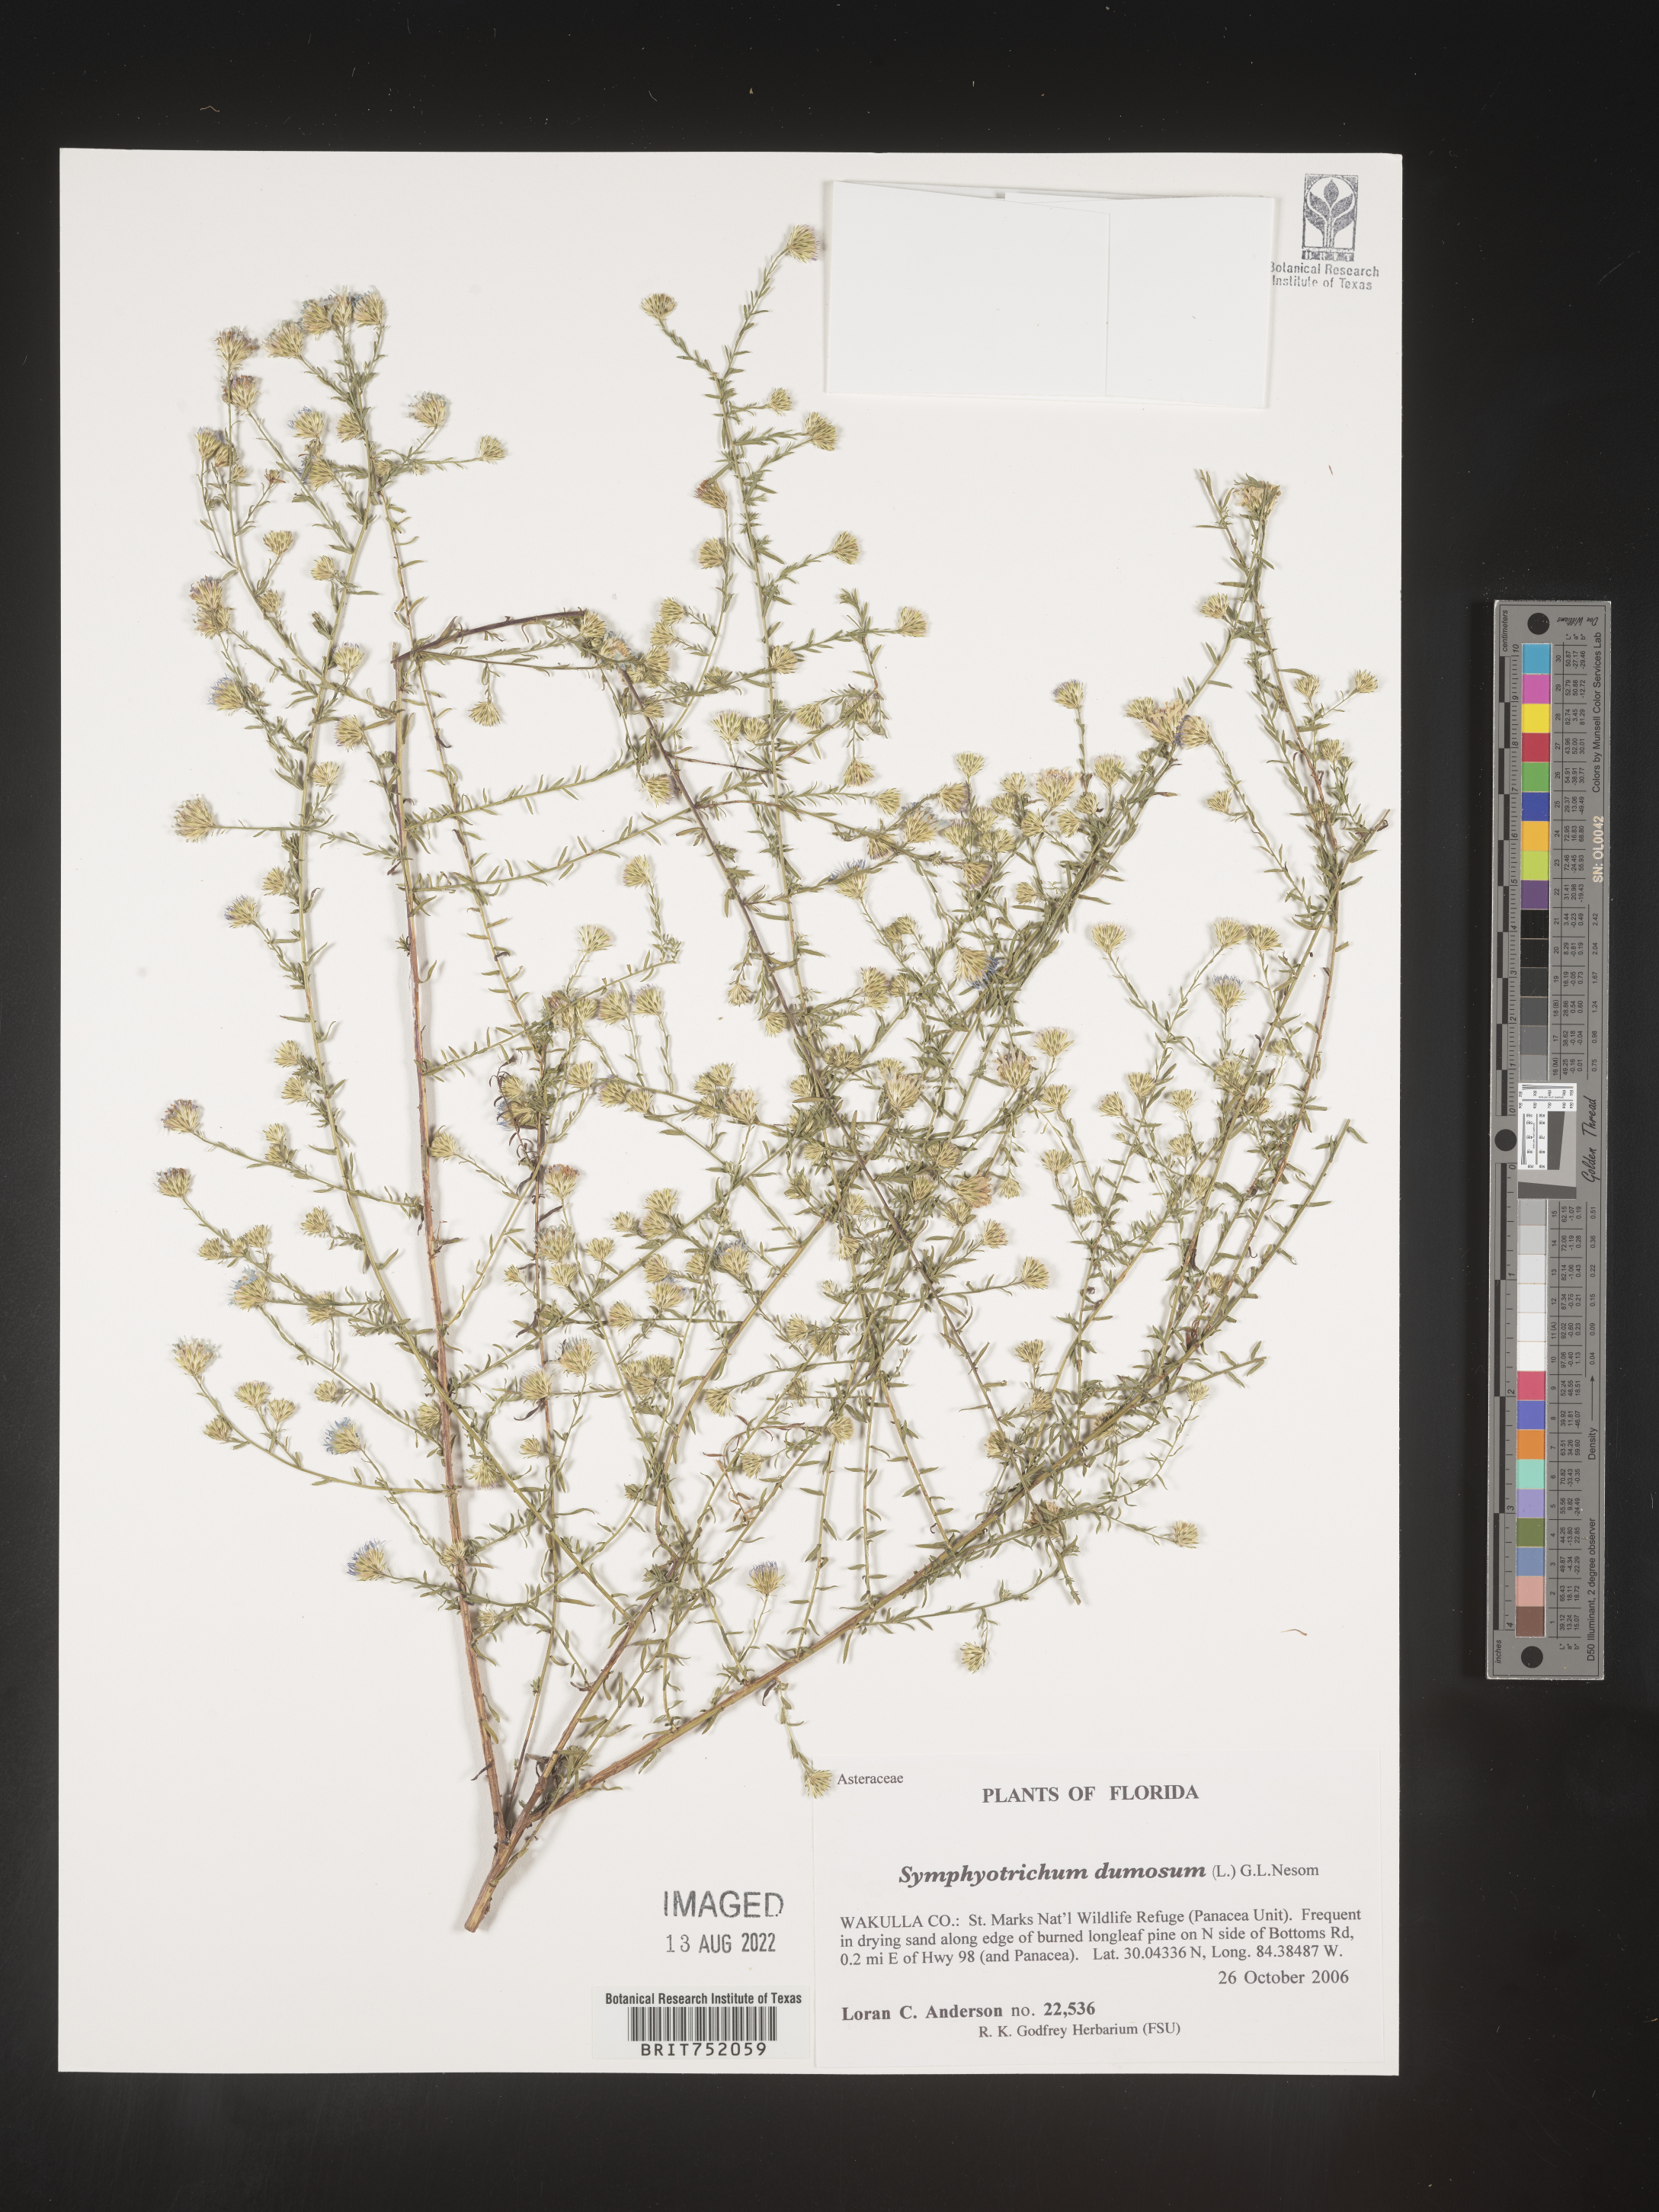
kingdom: Plantae
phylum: Tracheophyta
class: Magnoliopsida
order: Asterales
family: Asteraceae
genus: Symphyotrichum
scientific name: Symphyotrichum dumosum
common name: Bushy aster
